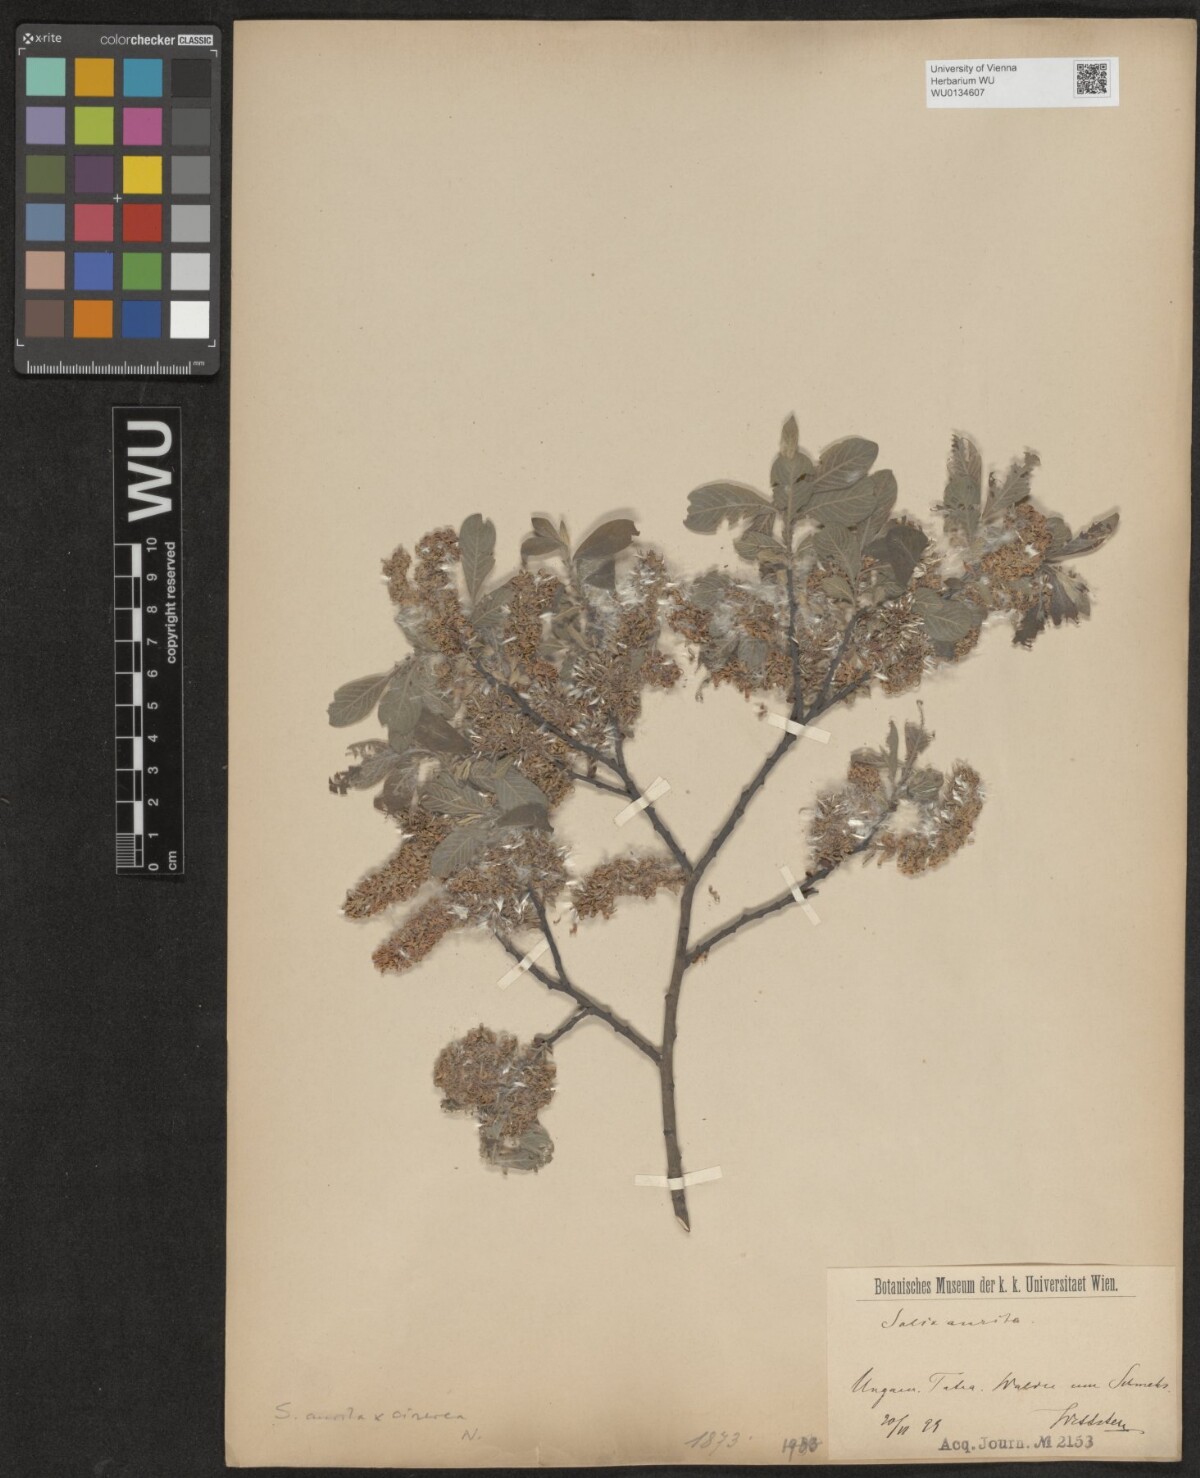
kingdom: Plantae
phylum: Tracheophyta
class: Magnoliopsida
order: Malpighiales
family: Salicaceae
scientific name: Salicaceae
